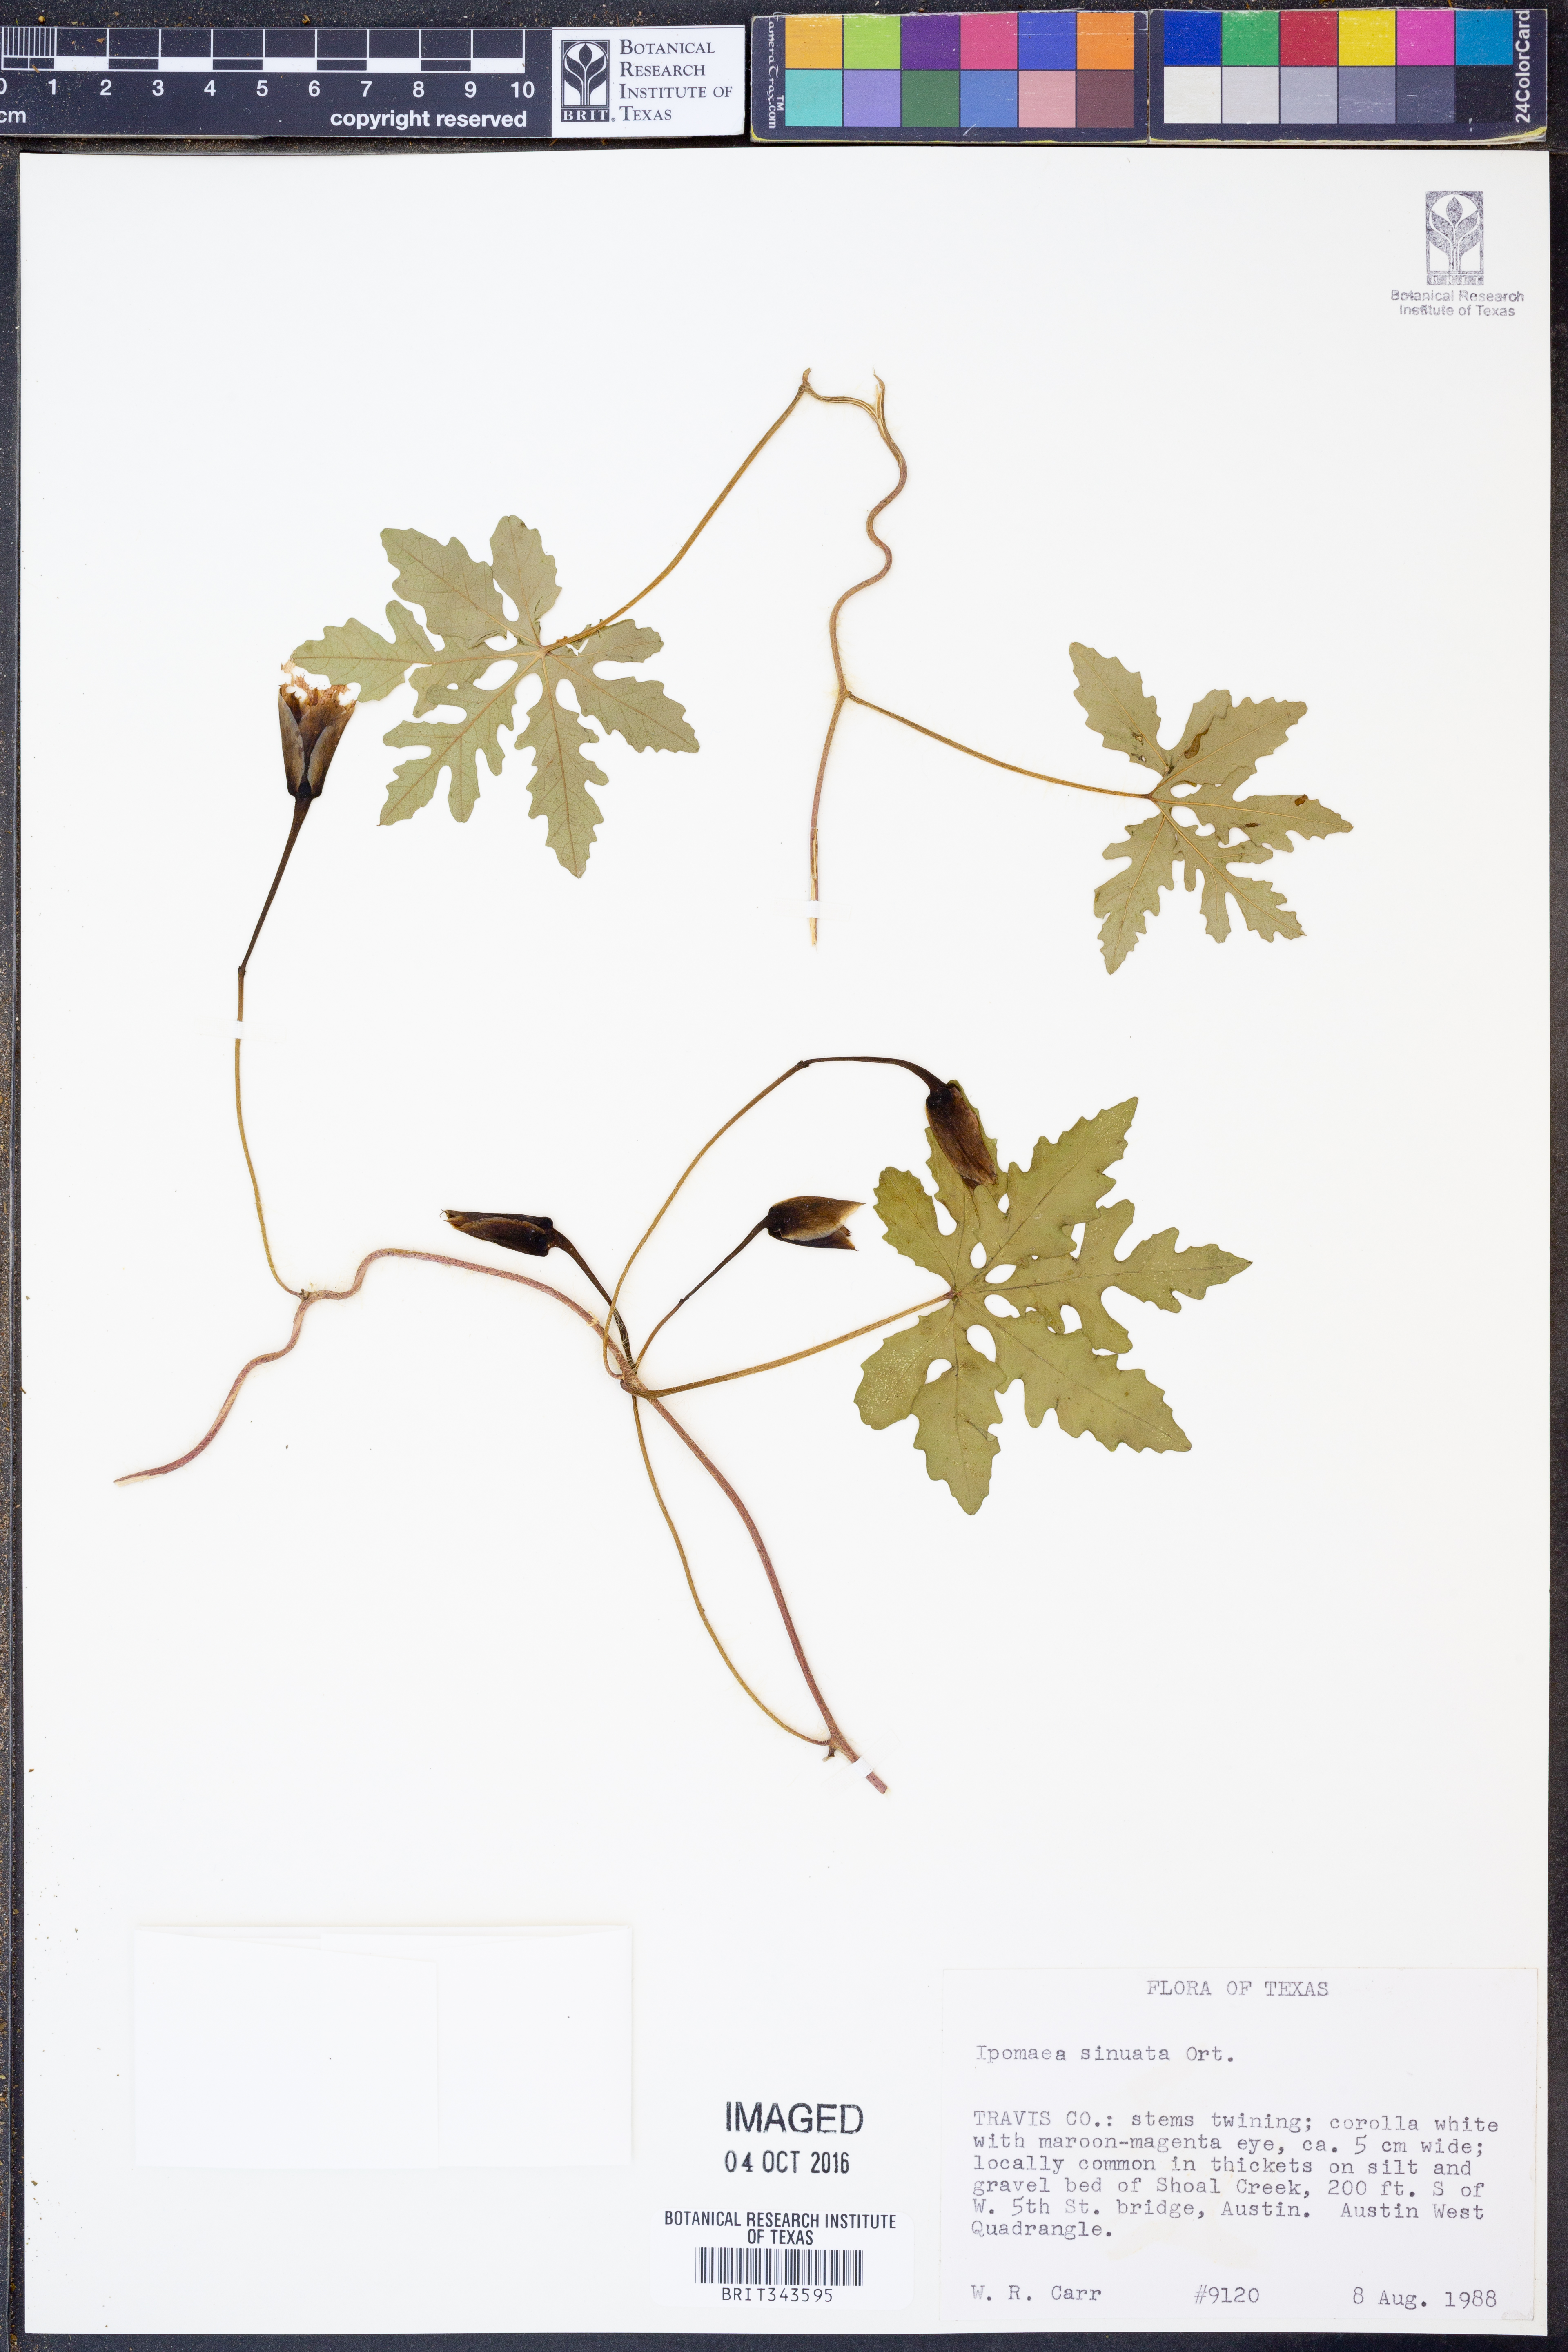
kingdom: Plantae
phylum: Tracheophyta
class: Magnoliopsida
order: Solanales
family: Convolvulaceae
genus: Distimake
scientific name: Distimake dissectus
